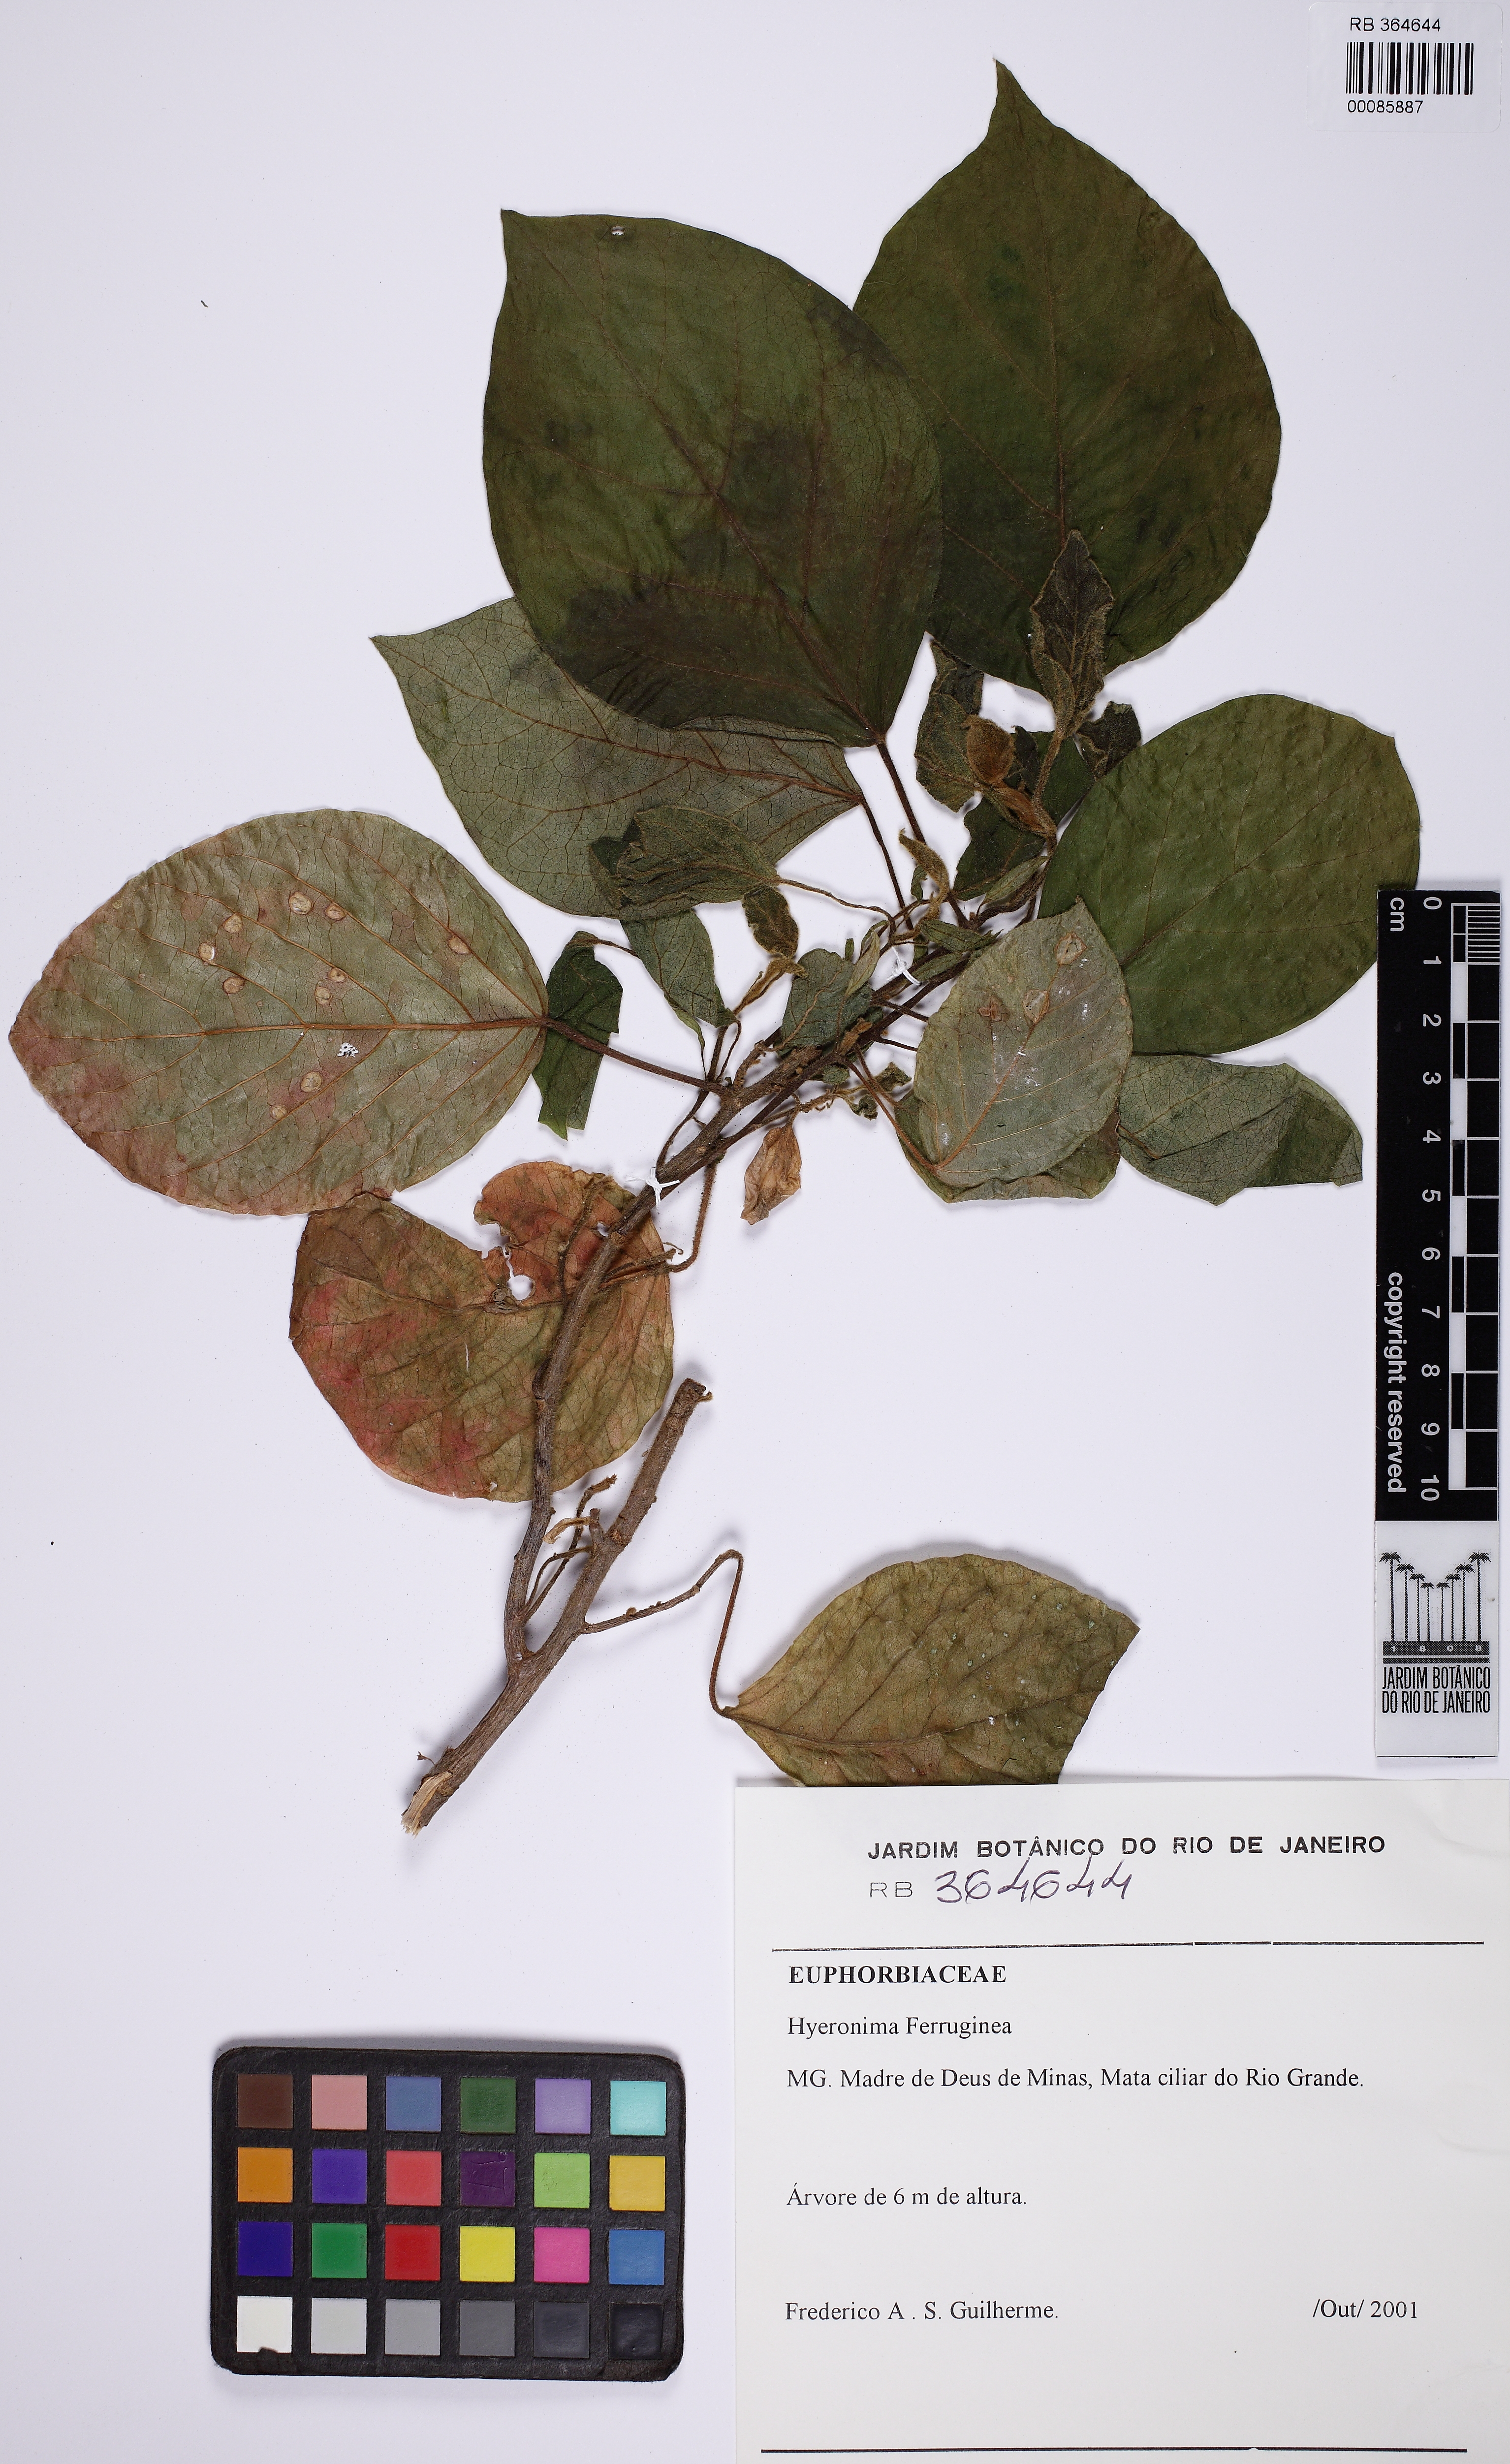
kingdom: Plantae
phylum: Tracheophyta
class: Magnoliopsida
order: Malpighiales
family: Phyllanthaceae
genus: Hieronyma
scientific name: Hieronyma alchorneoides
